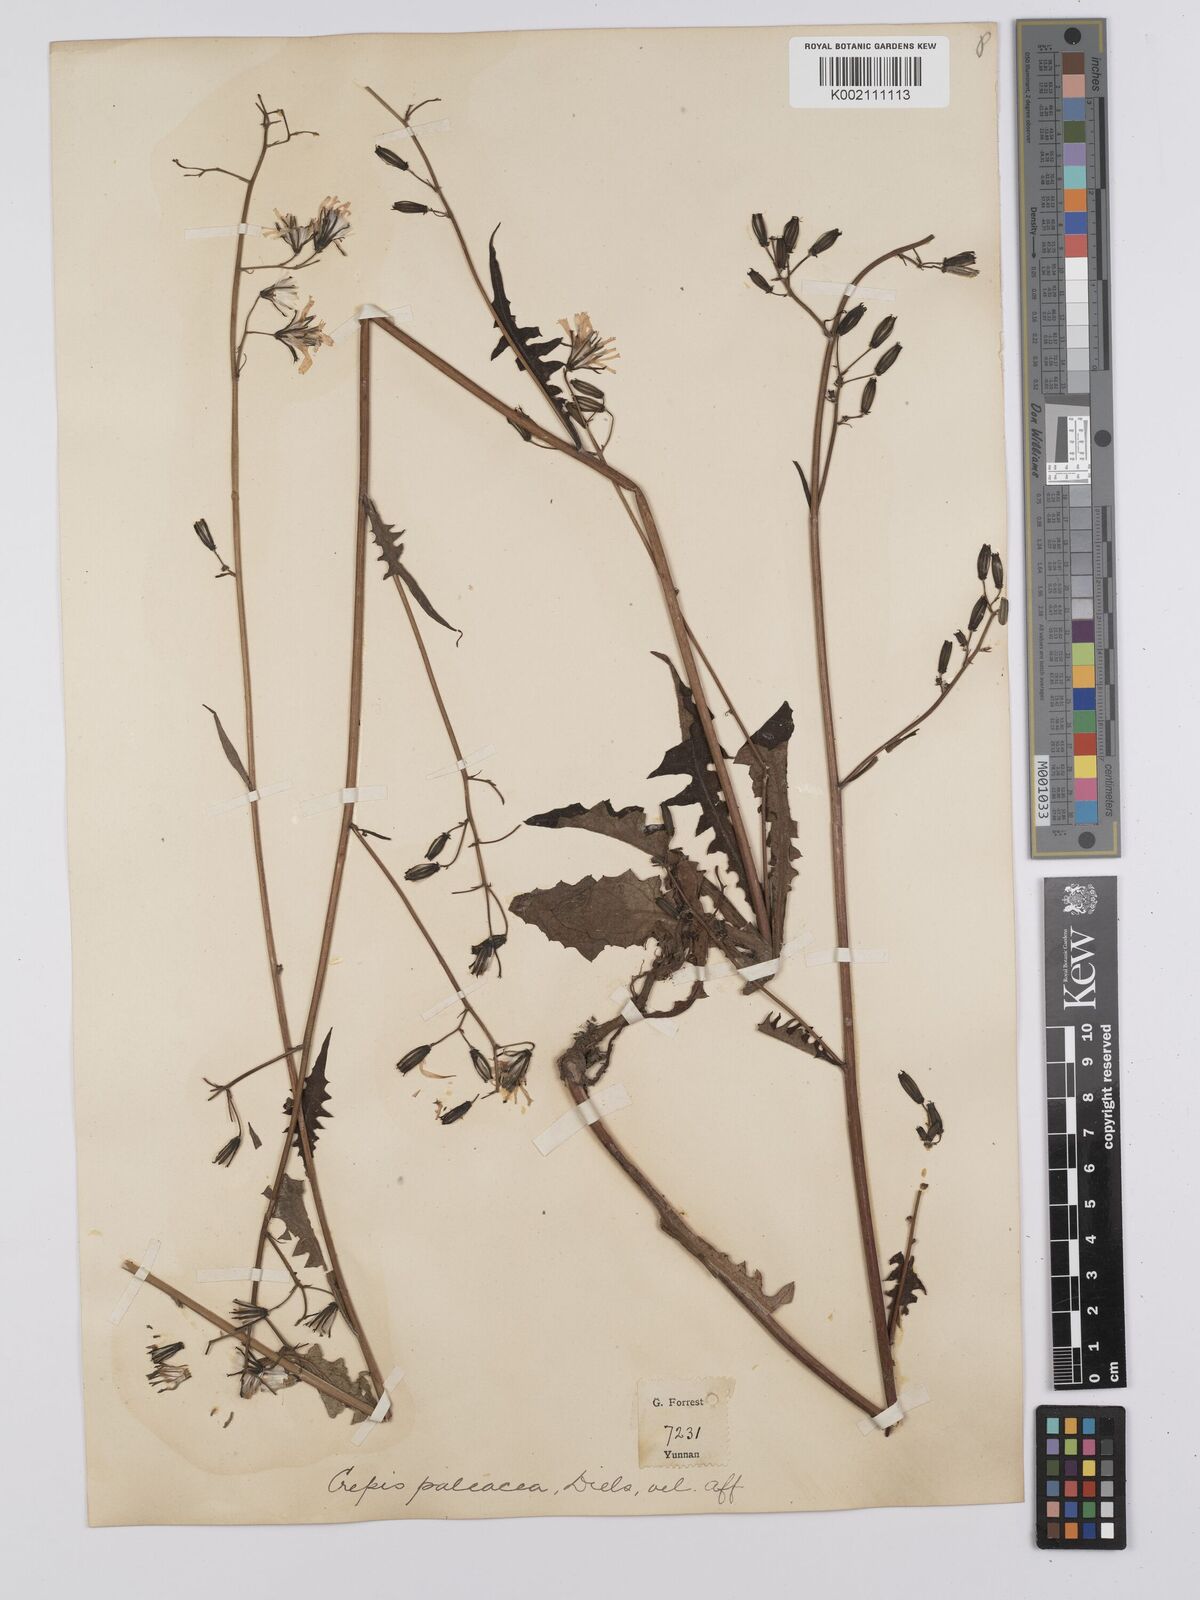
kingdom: Plantae
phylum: Tracheophyta
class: Magnoliopsida
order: Asterales
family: Asteraceae
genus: Youngia
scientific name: Youngia paleacea
